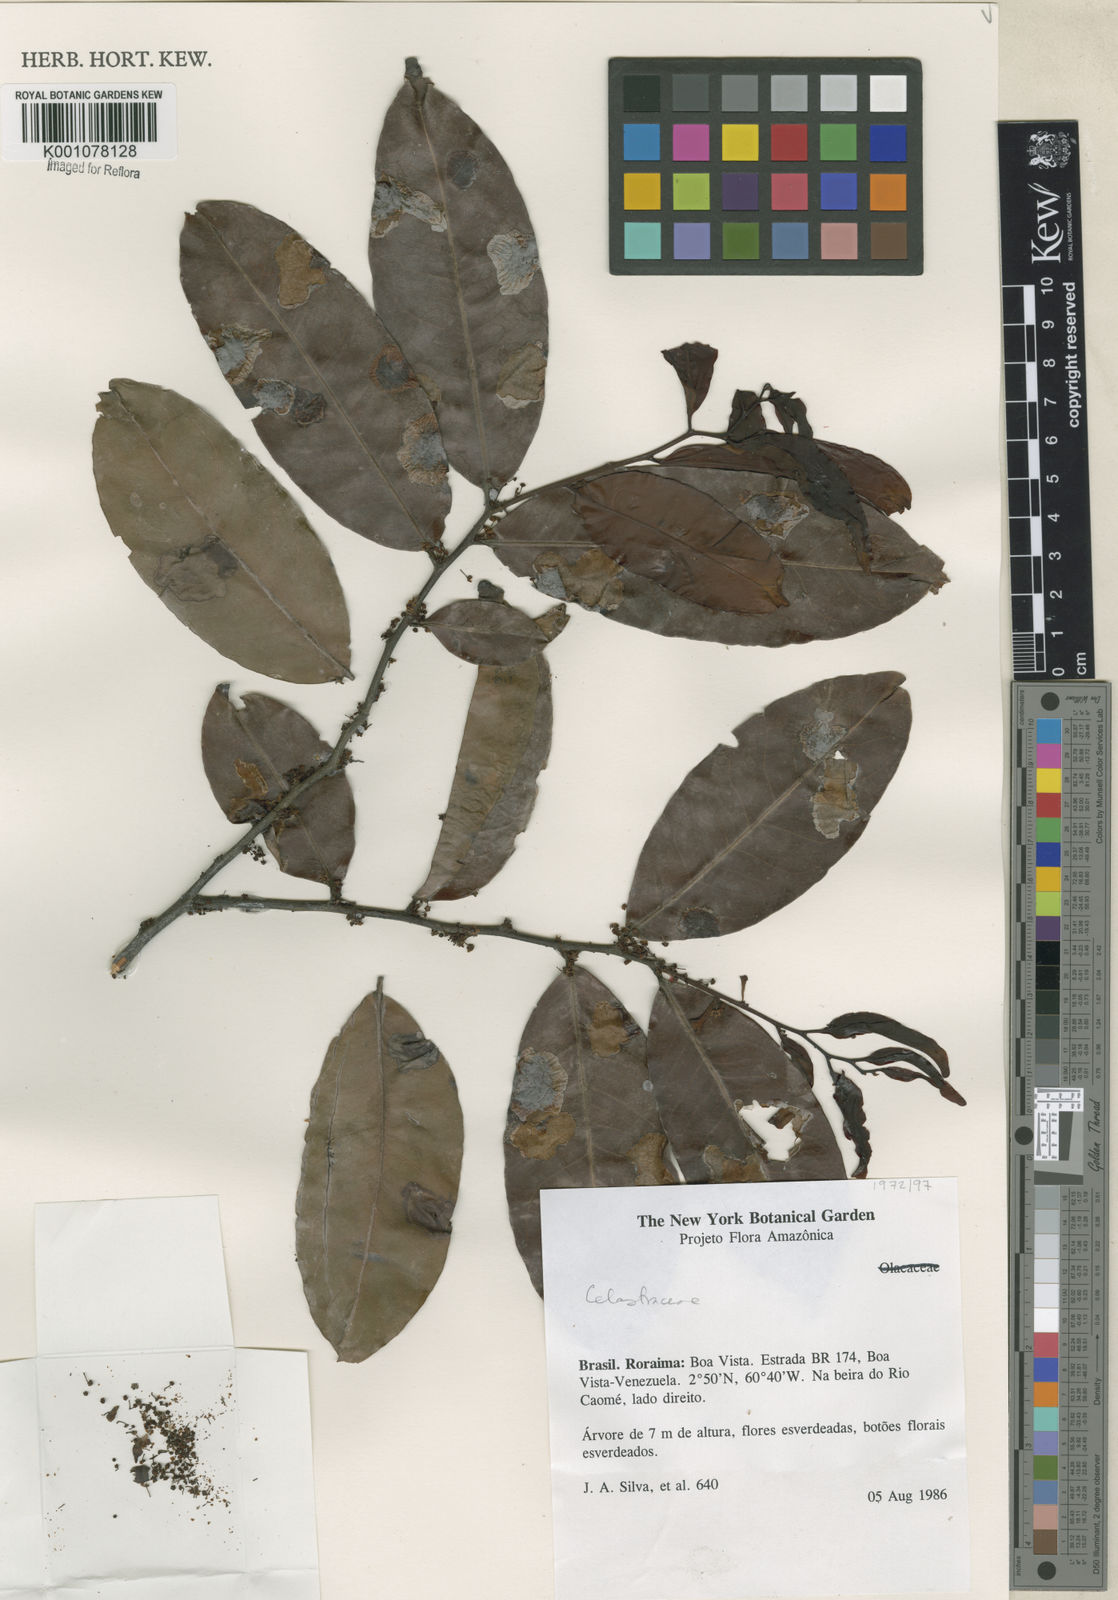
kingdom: Plantae
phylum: Tracheophyta
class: Magnoliopsida
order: Celastrales
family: Celastraceae
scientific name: Celastraceae
